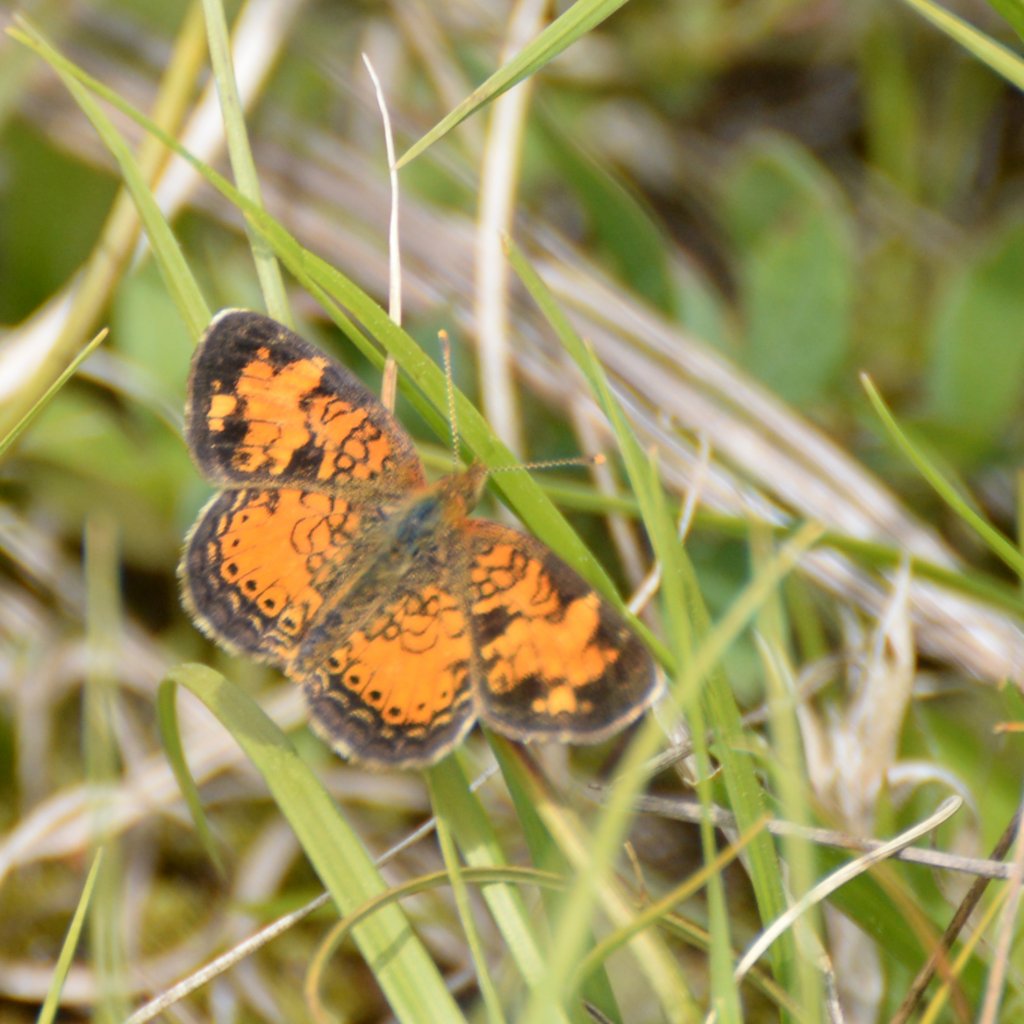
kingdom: Animalia
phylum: Arthropoda
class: Insecta
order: Lepidoptera
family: Nymphalidae
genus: Phyciodes
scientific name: Phyciodes tharos
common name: Northern Crescent
